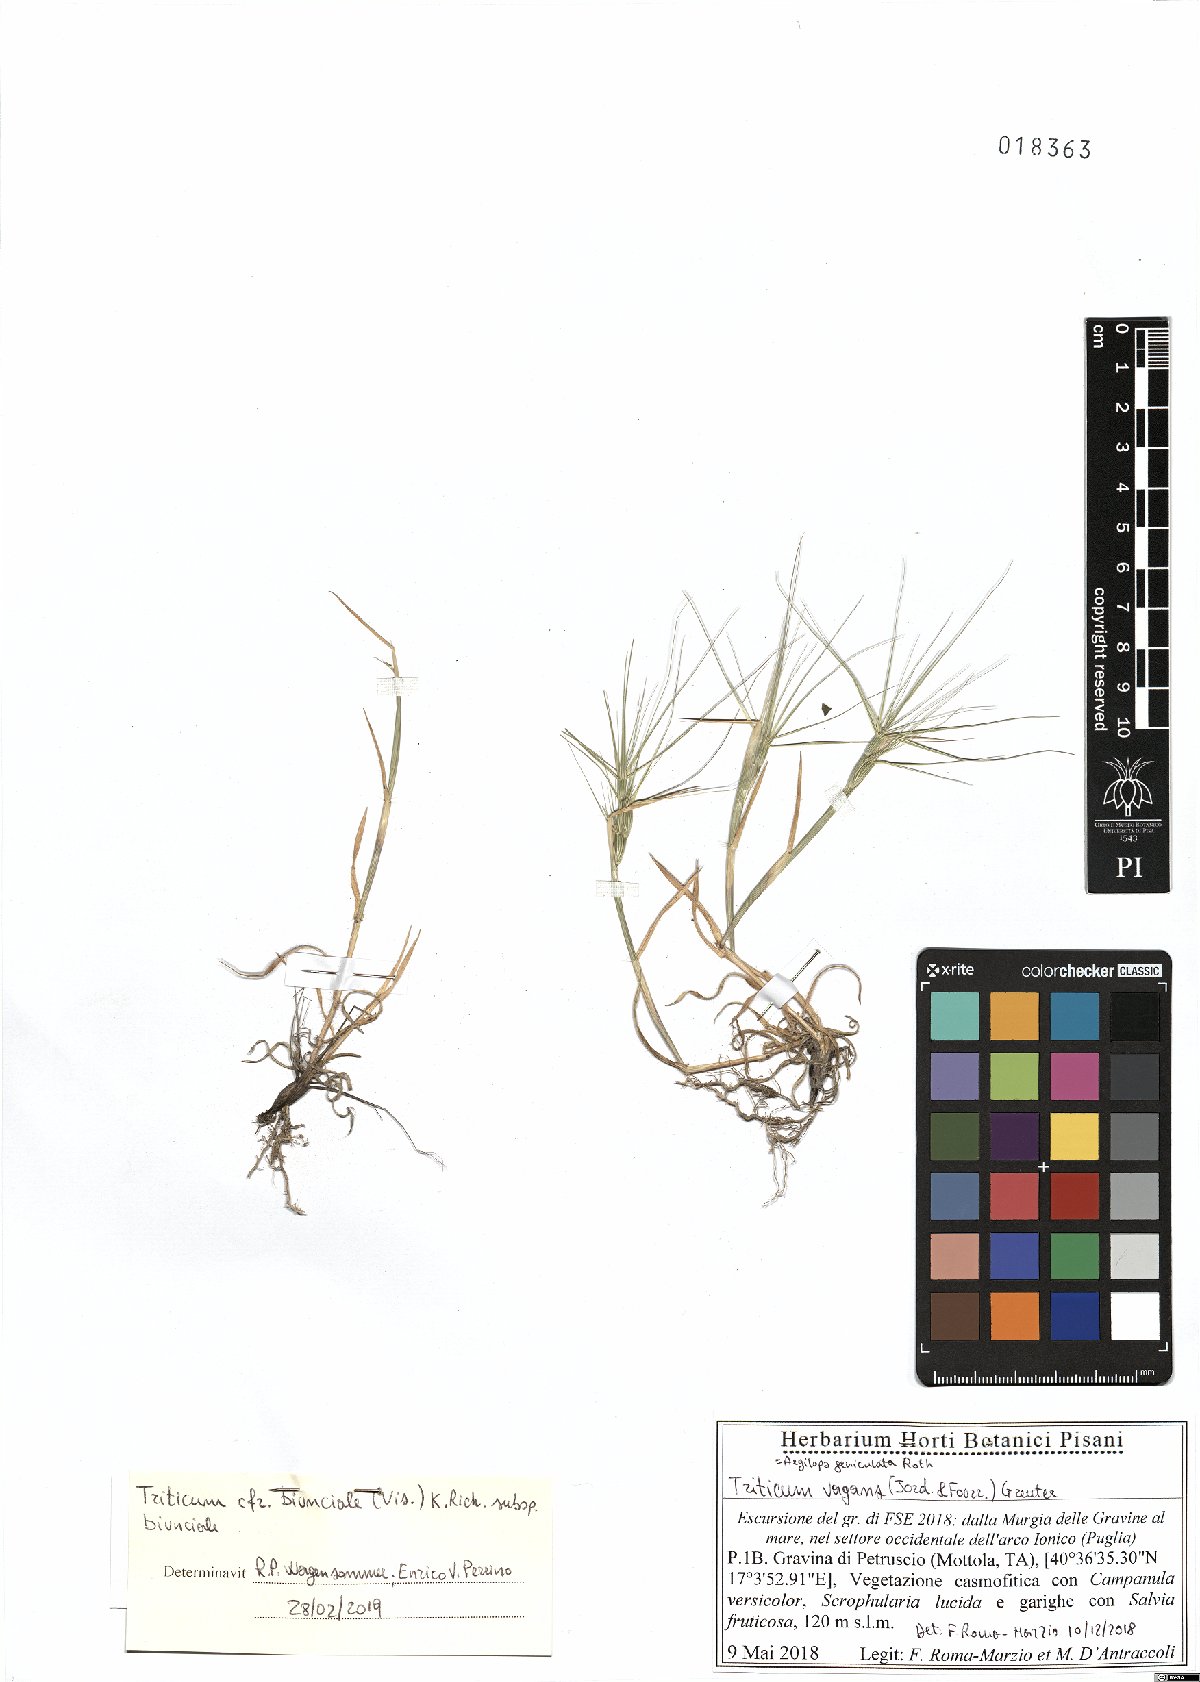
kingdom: Plantae
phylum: Tracheophyta
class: Liliopsida
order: Poales
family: Poaceae
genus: Aegilops
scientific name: Aegilops biuncialis
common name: Mediterranean aegilops
